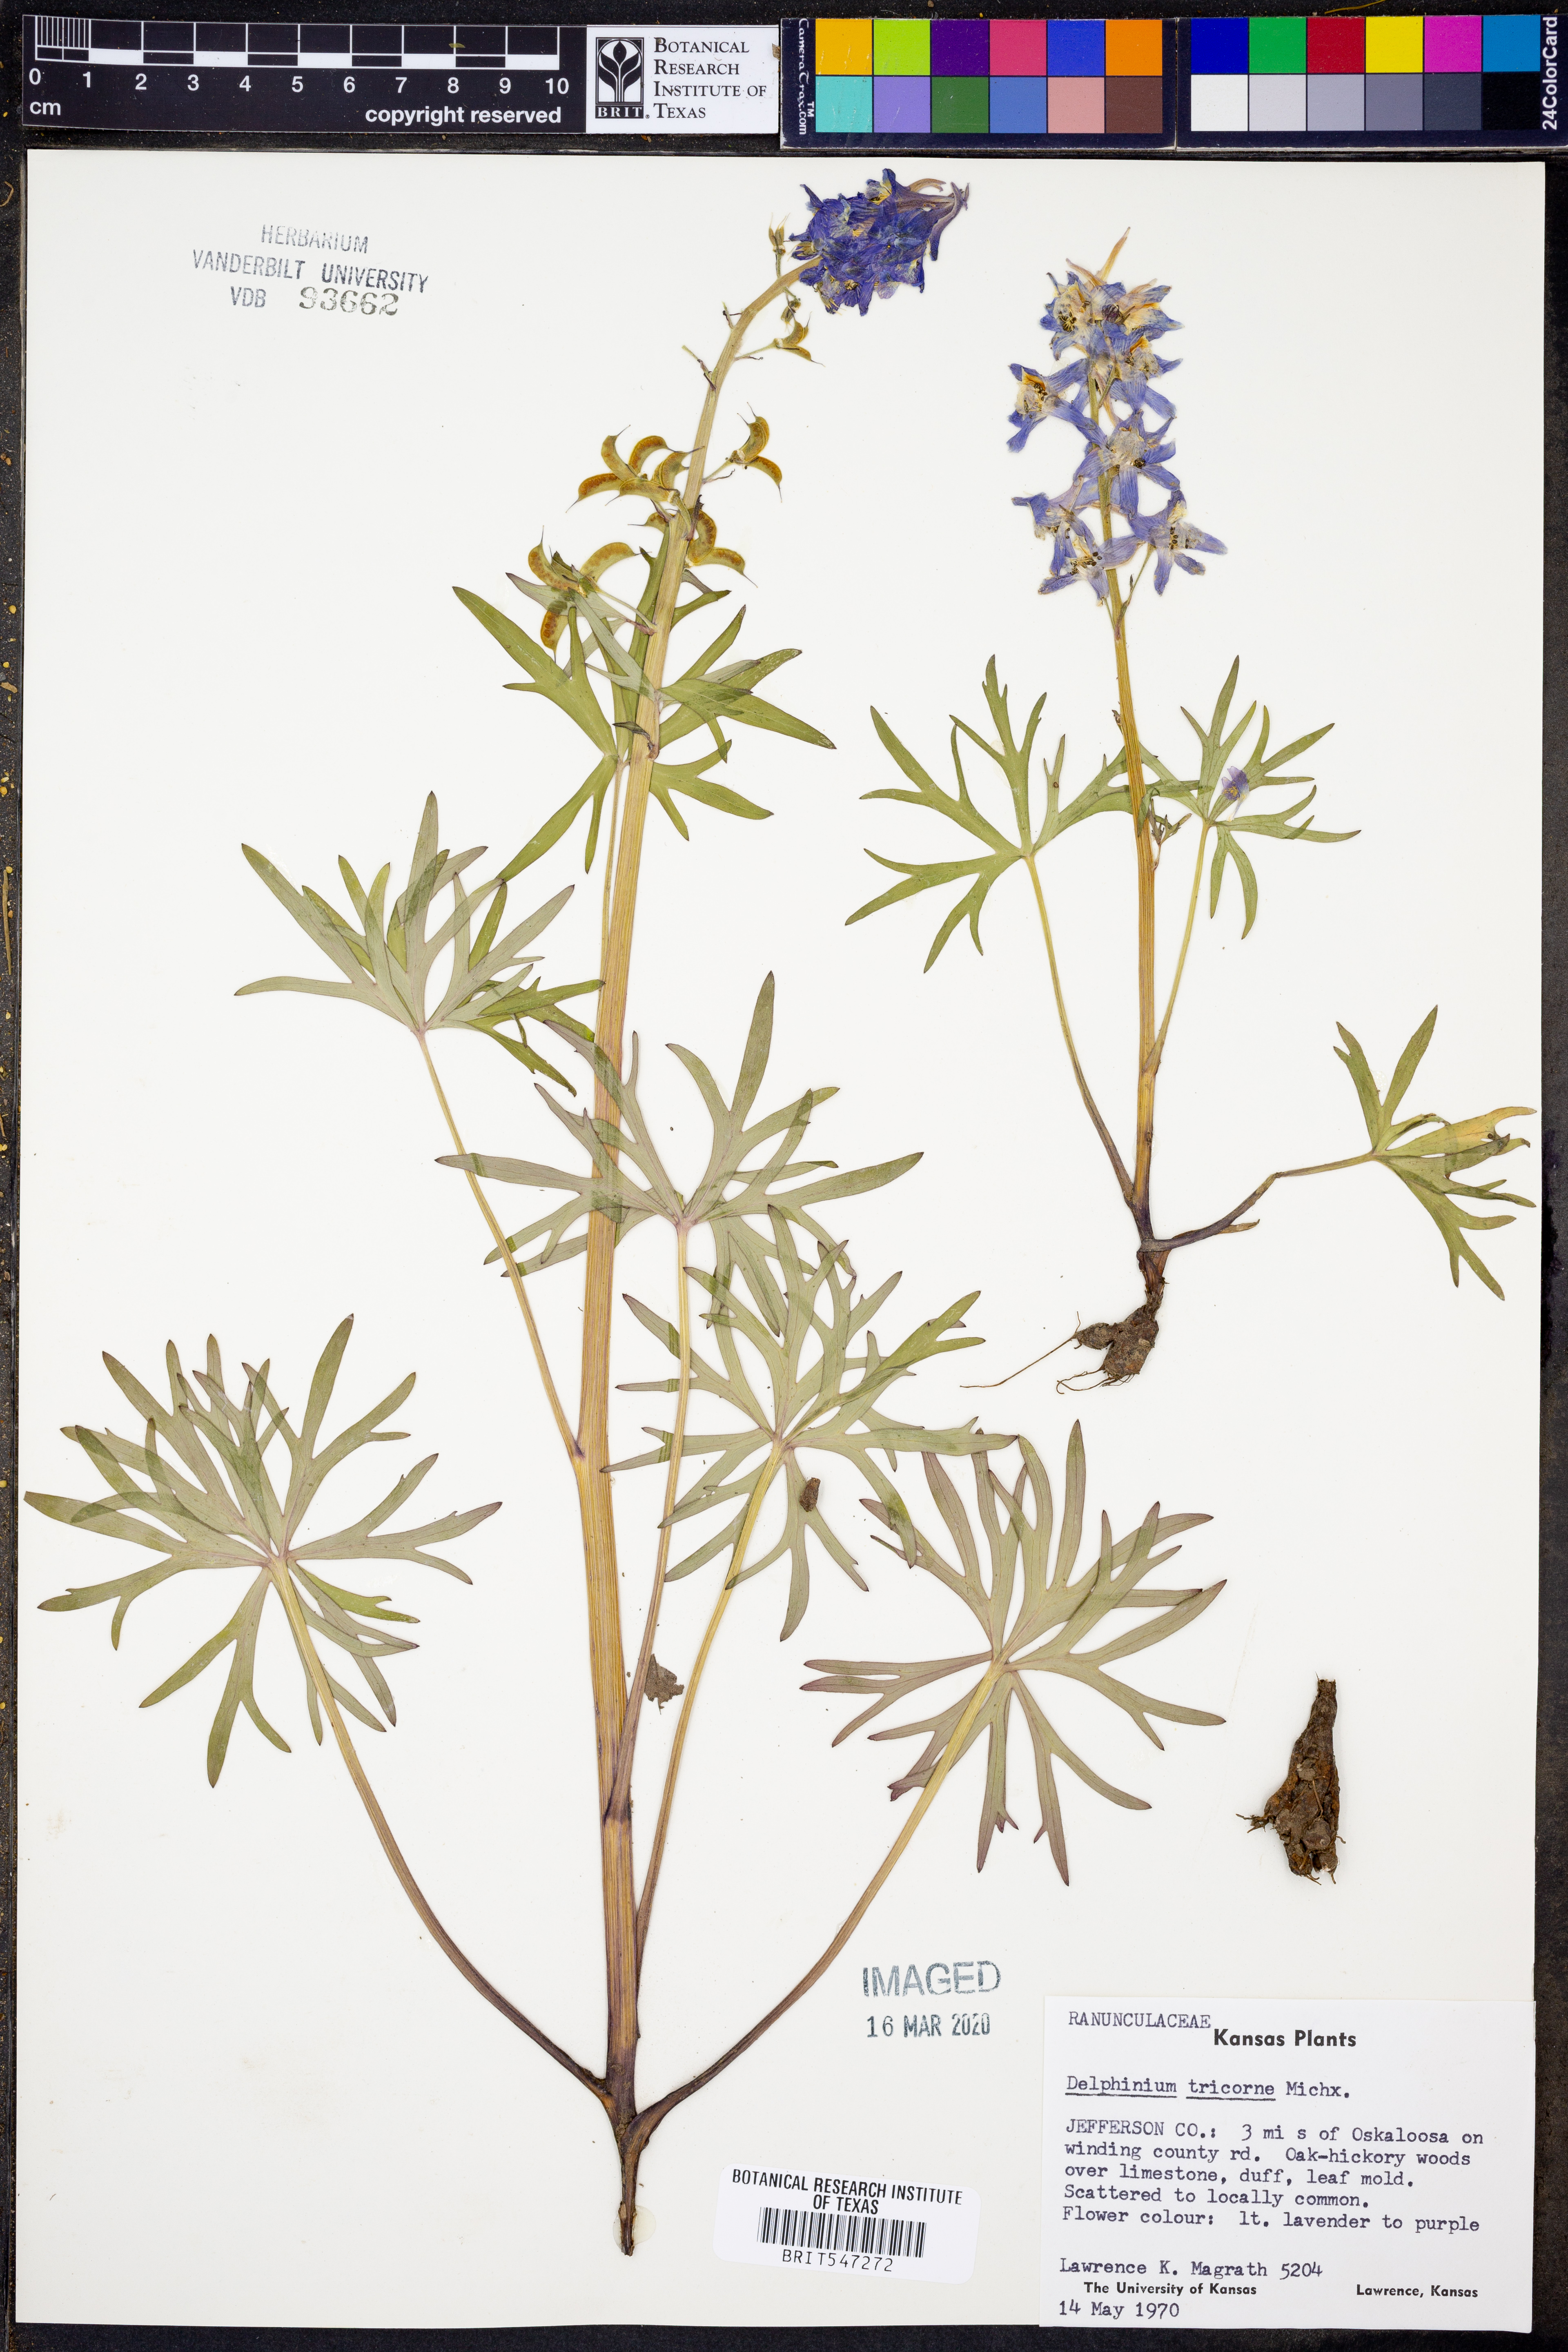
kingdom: Plantae
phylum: Tracheophyta
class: Magnoliopsida
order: Ranunculales
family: Ranunculaceae
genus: Delphinium
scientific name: Delphinium tricorne
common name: Dwarf larkspur
